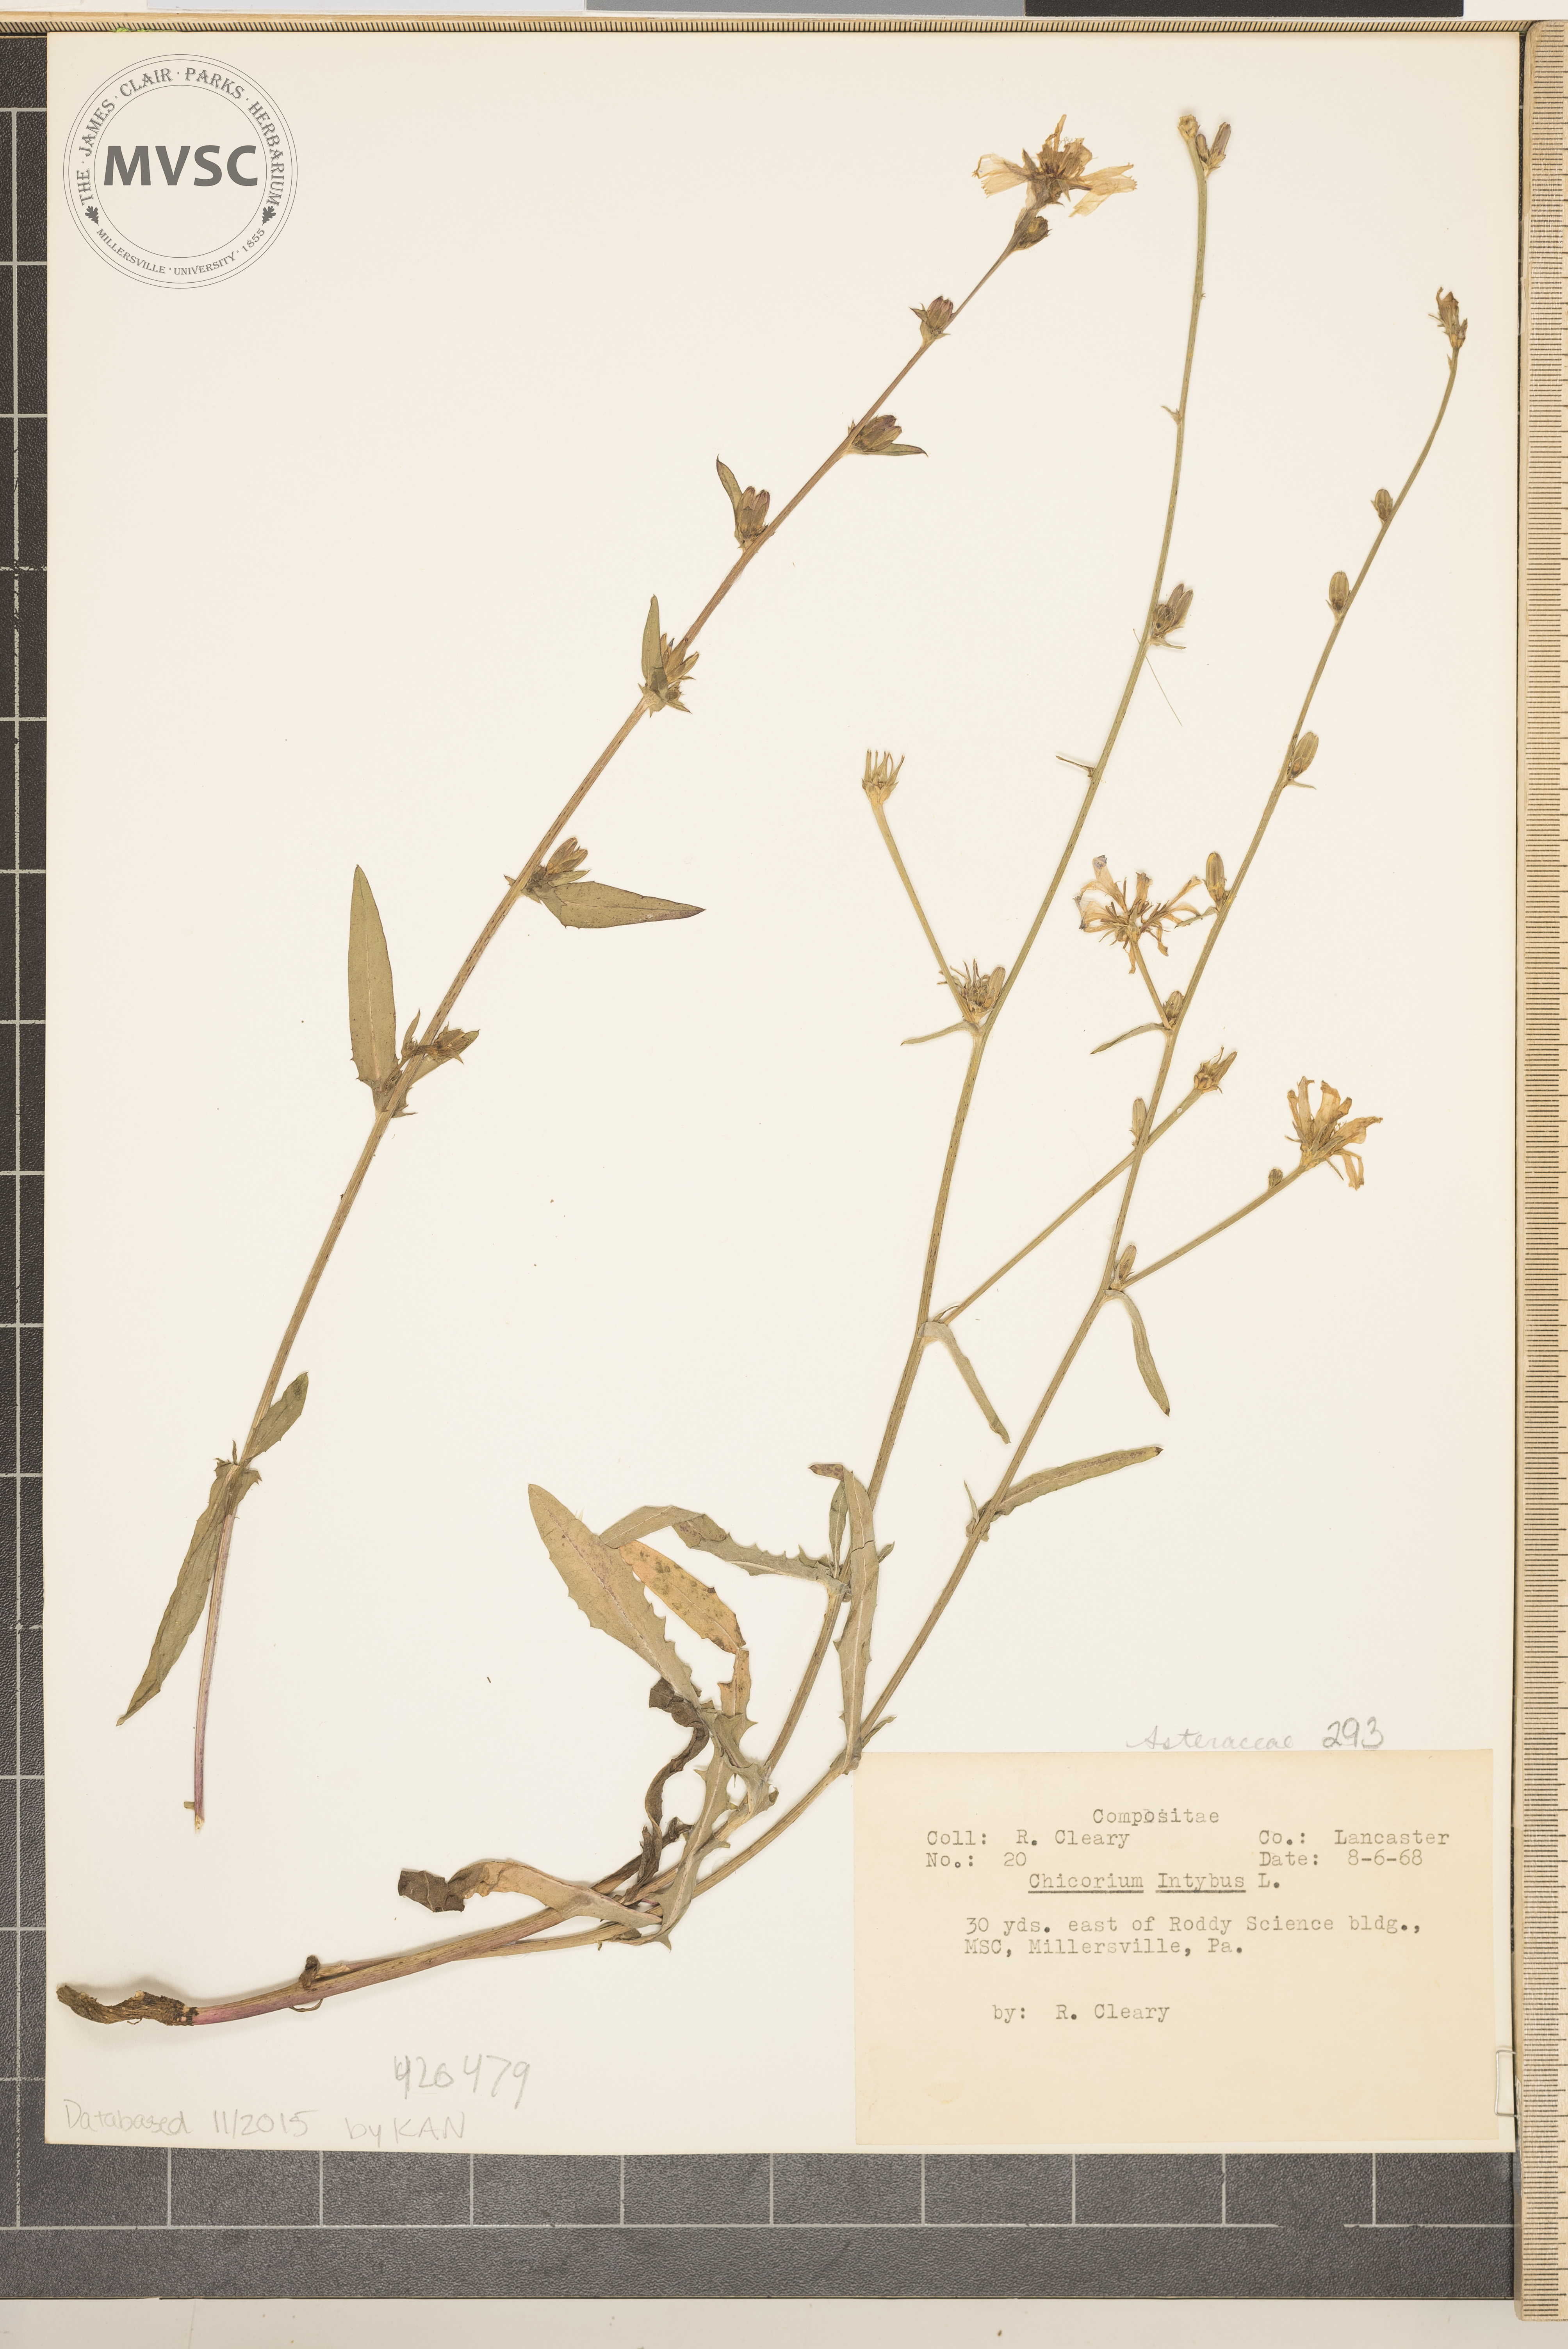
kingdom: Plantae
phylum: Tracheophyta
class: Magnoliopsida
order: Asterales
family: Asteraceae
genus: Cichorium
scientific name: Cichorium intybus
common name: Common Chicory
